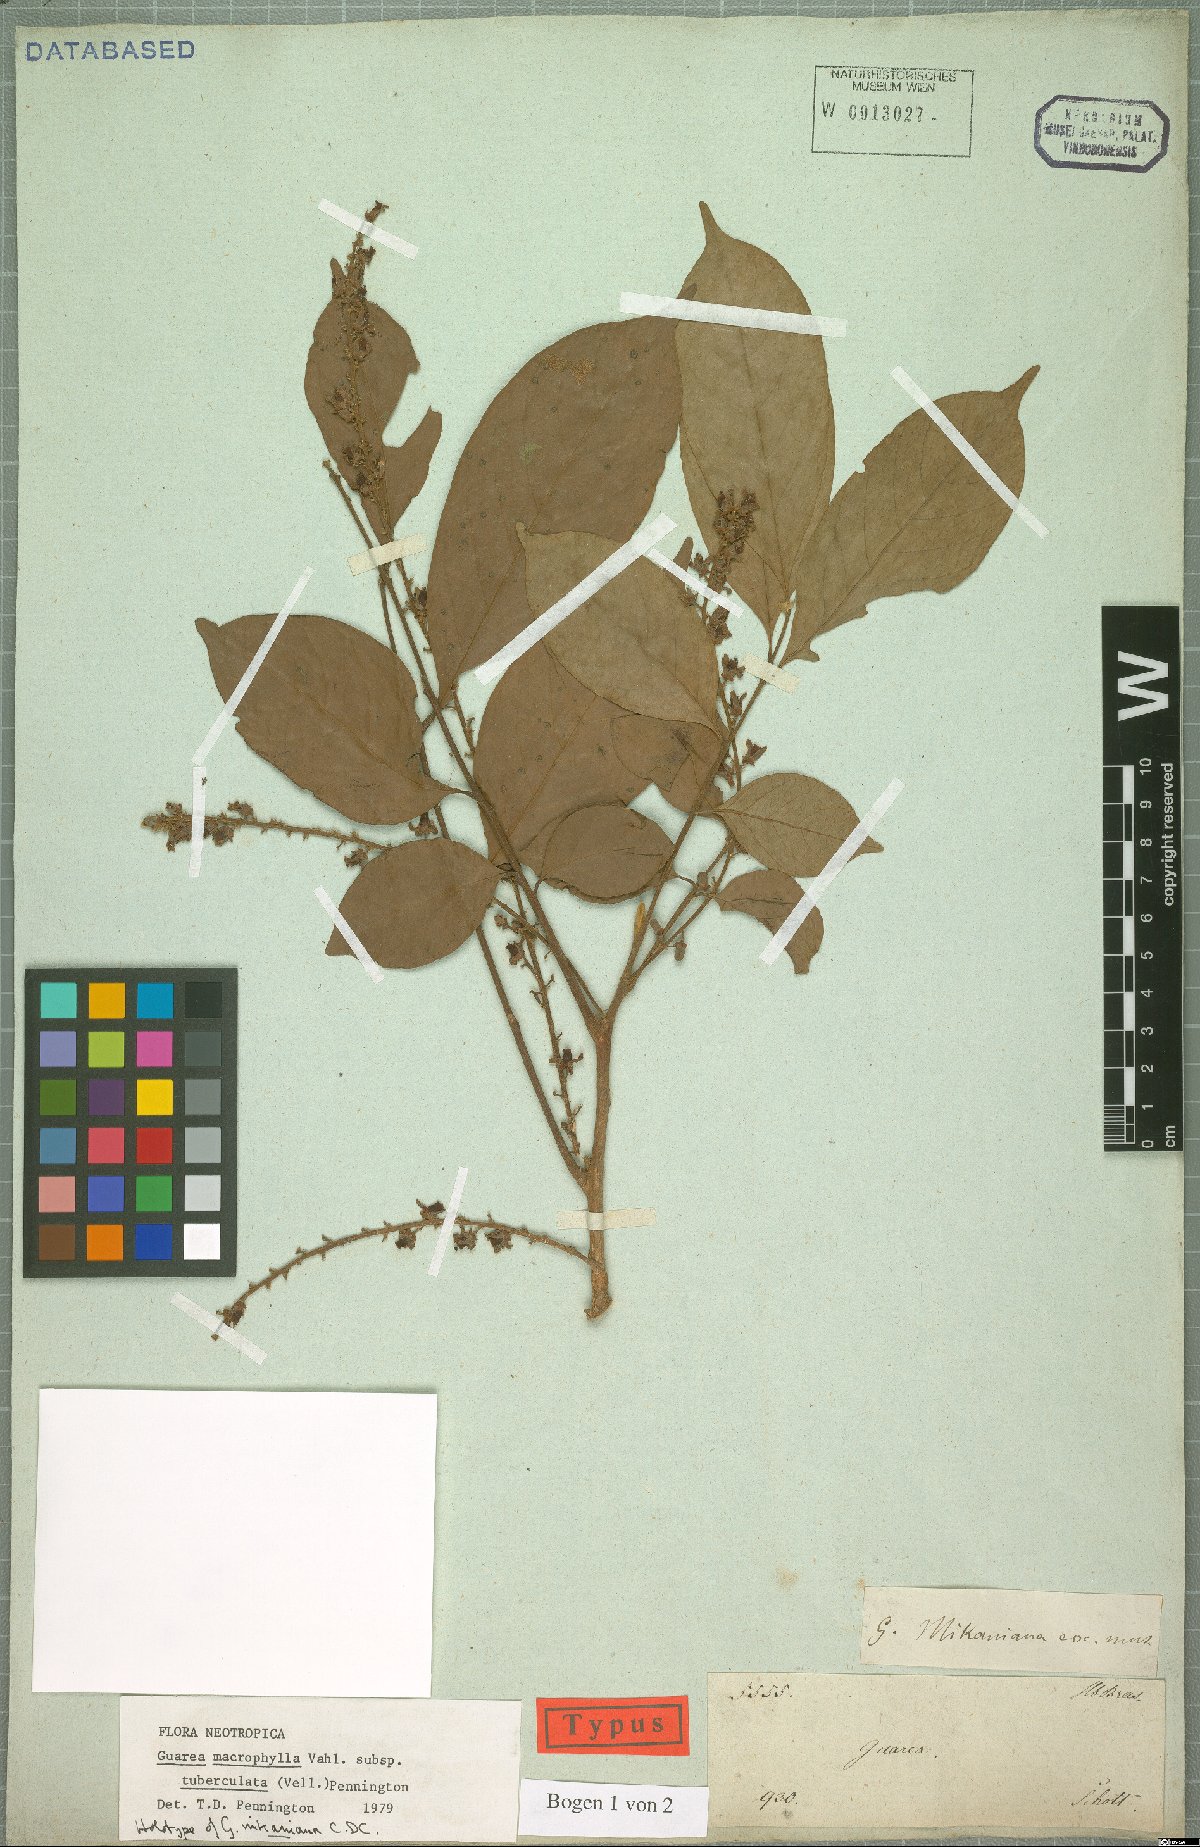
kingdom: Plantae
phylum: Tracheophyta
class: Magnoliopsida
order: Sapindales
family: Meliaceae
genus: Guarea
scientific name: Guarea macrophylla
